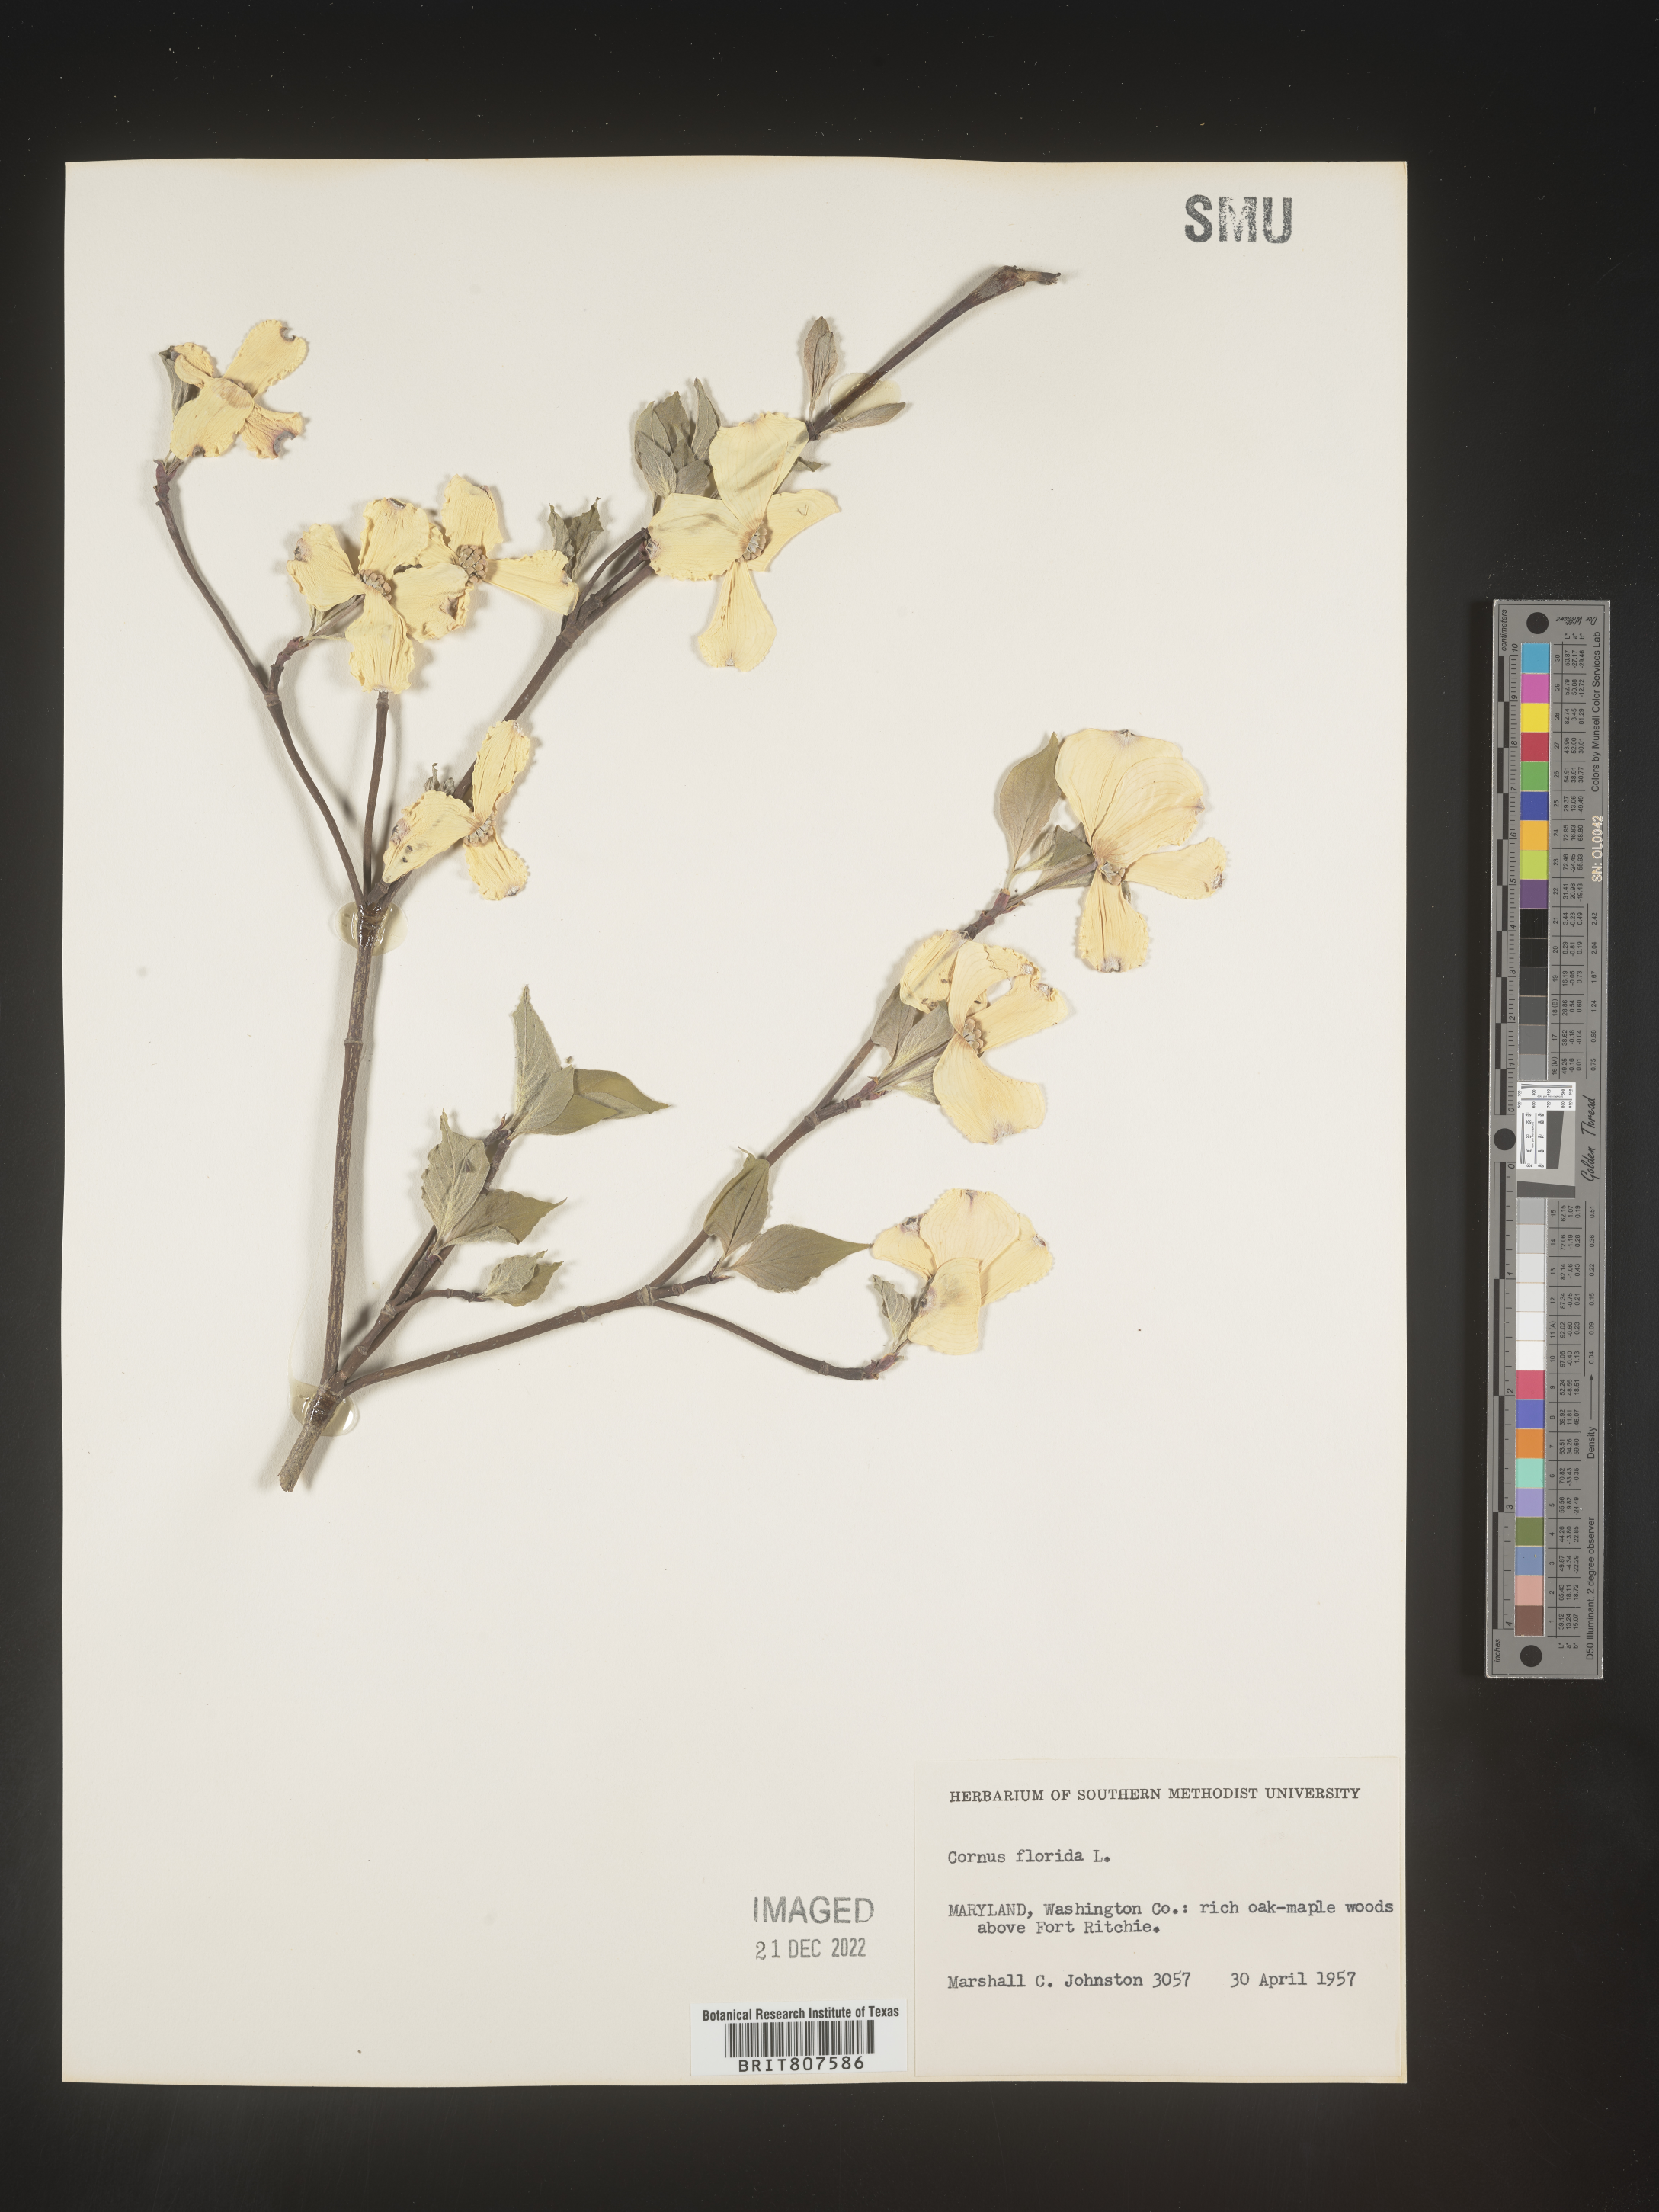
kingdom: Plantae
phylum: Tracheophyta
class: Magnoliopsida
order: Cornales
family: Cornaceae
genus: Cornus
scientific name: Cornus florida
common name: Flowering dogwood
